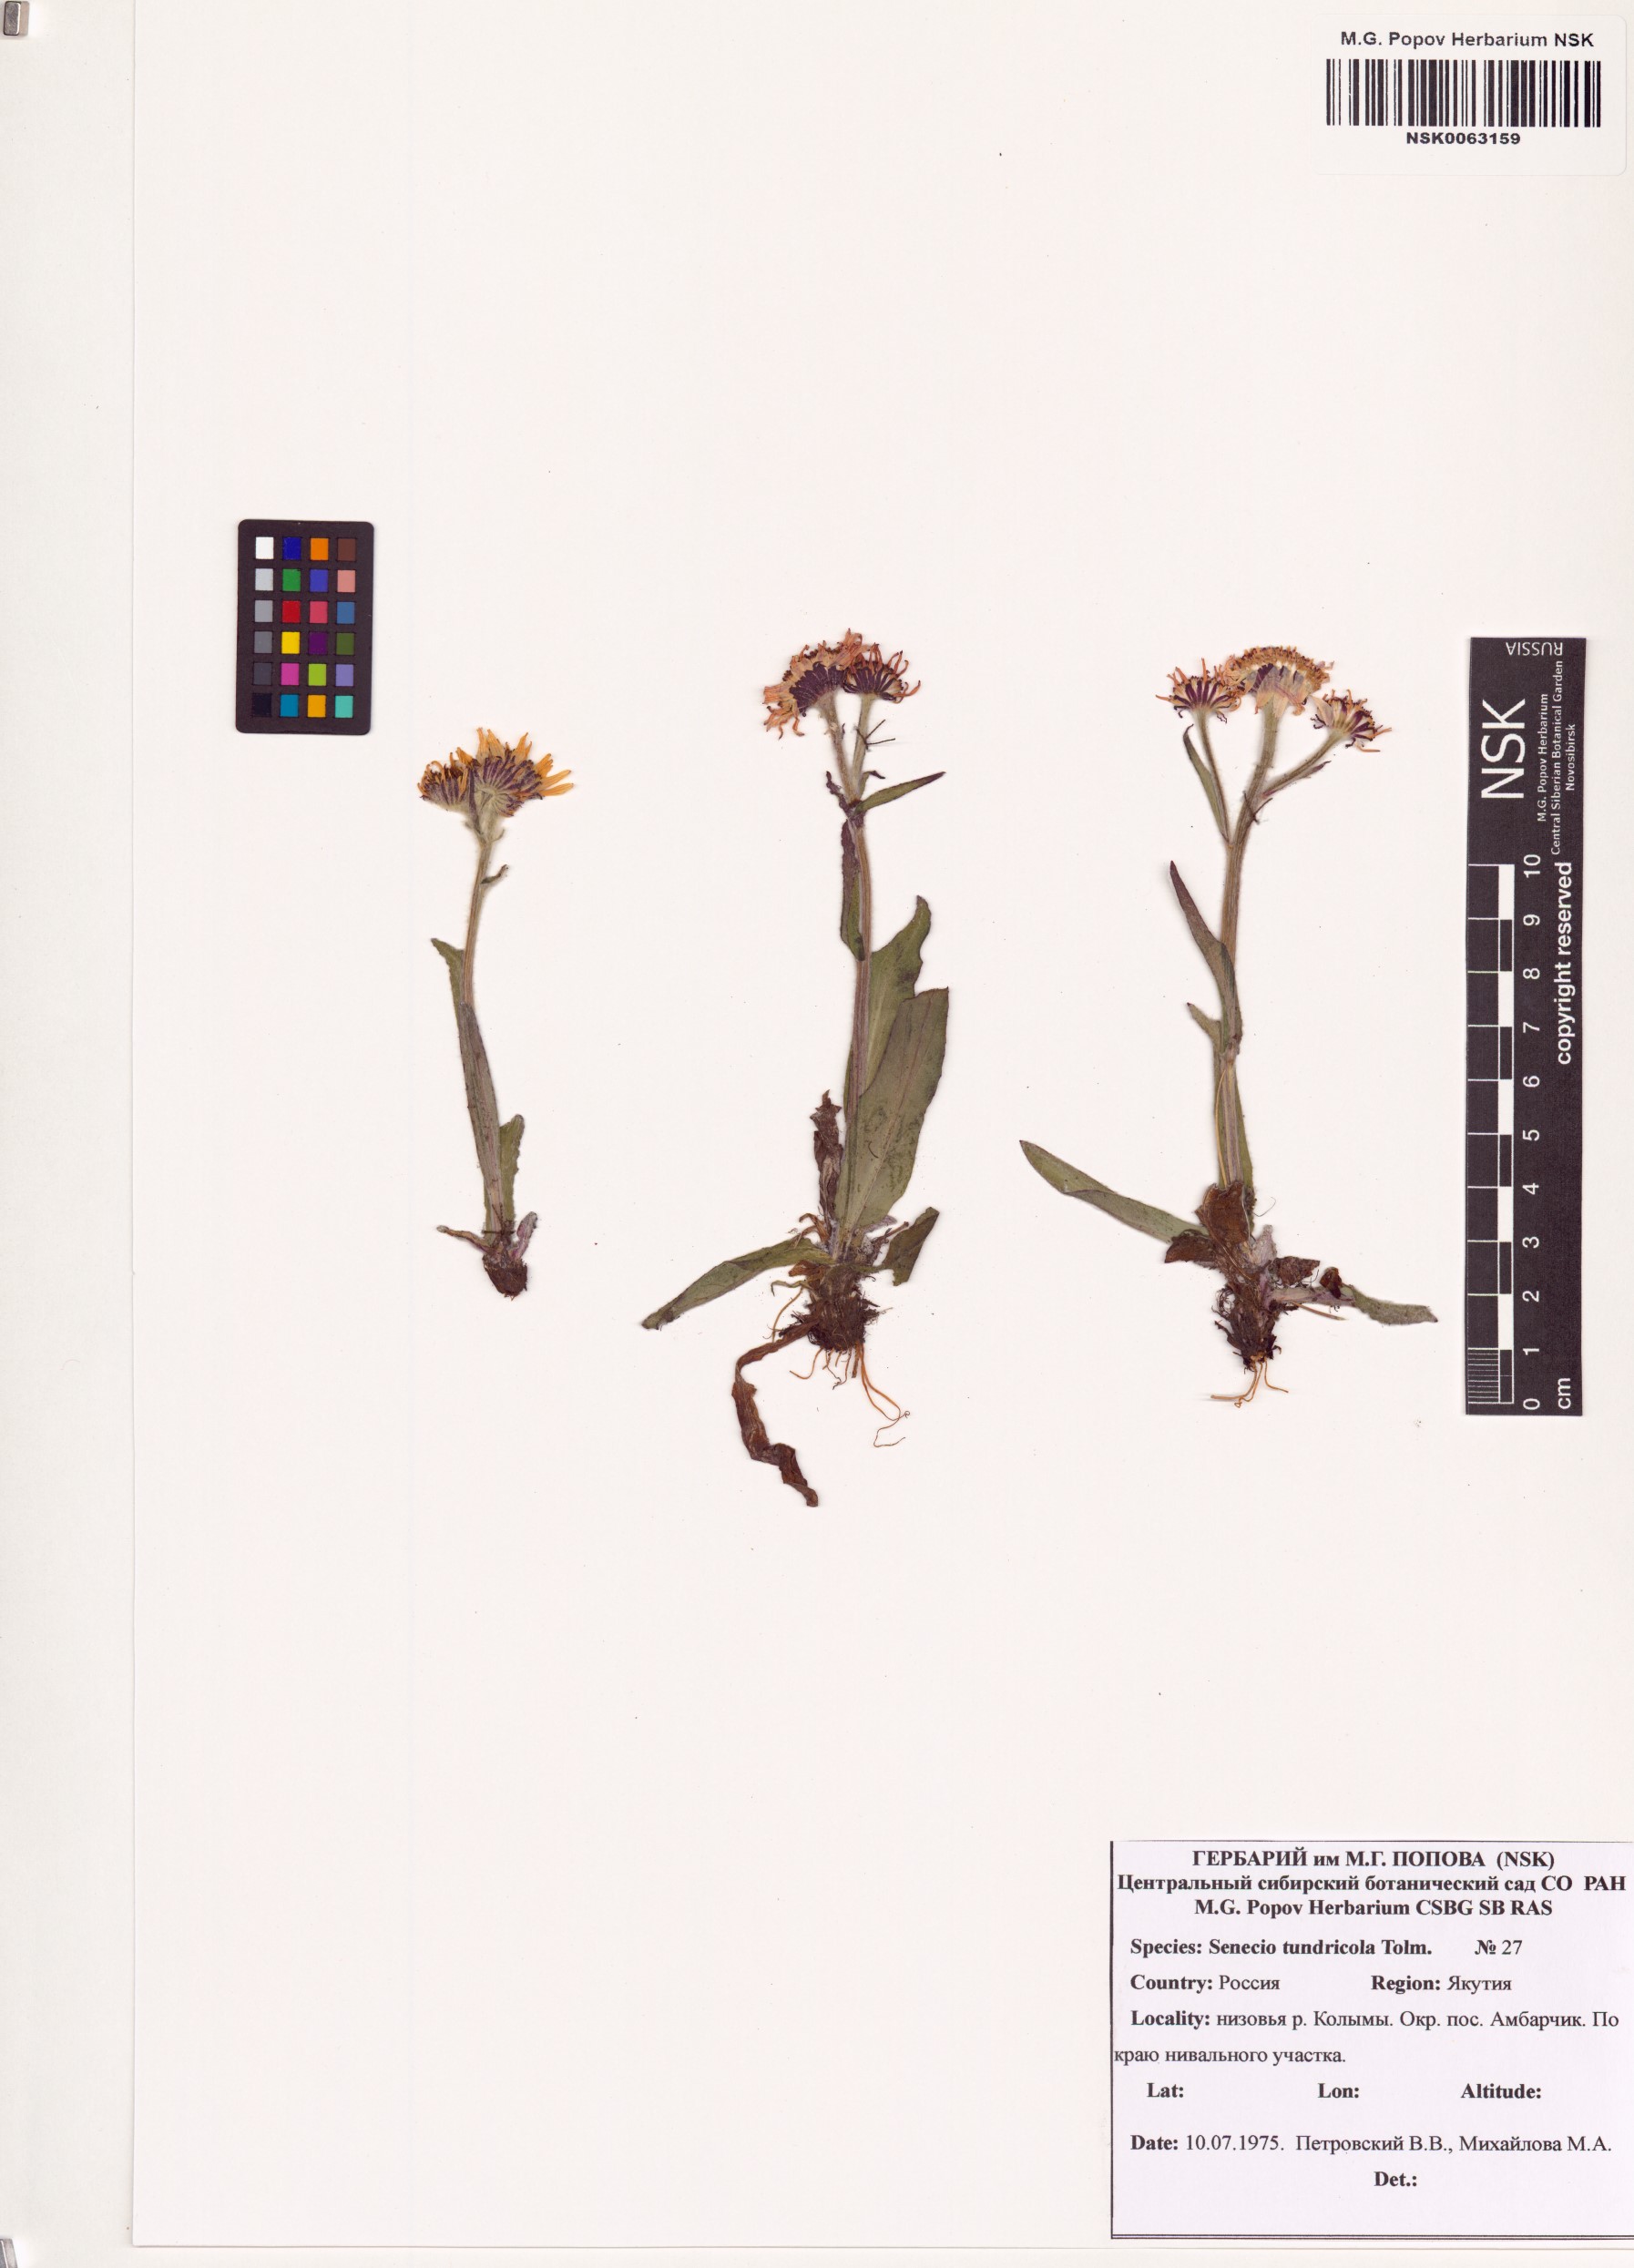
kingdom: Plantae
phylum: Tracheophyta
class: Magnoliopsida
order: Asterales
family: Asteraceae
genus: Tephroseris
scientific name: Tephroseris integrifolia
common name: Field fleawort
